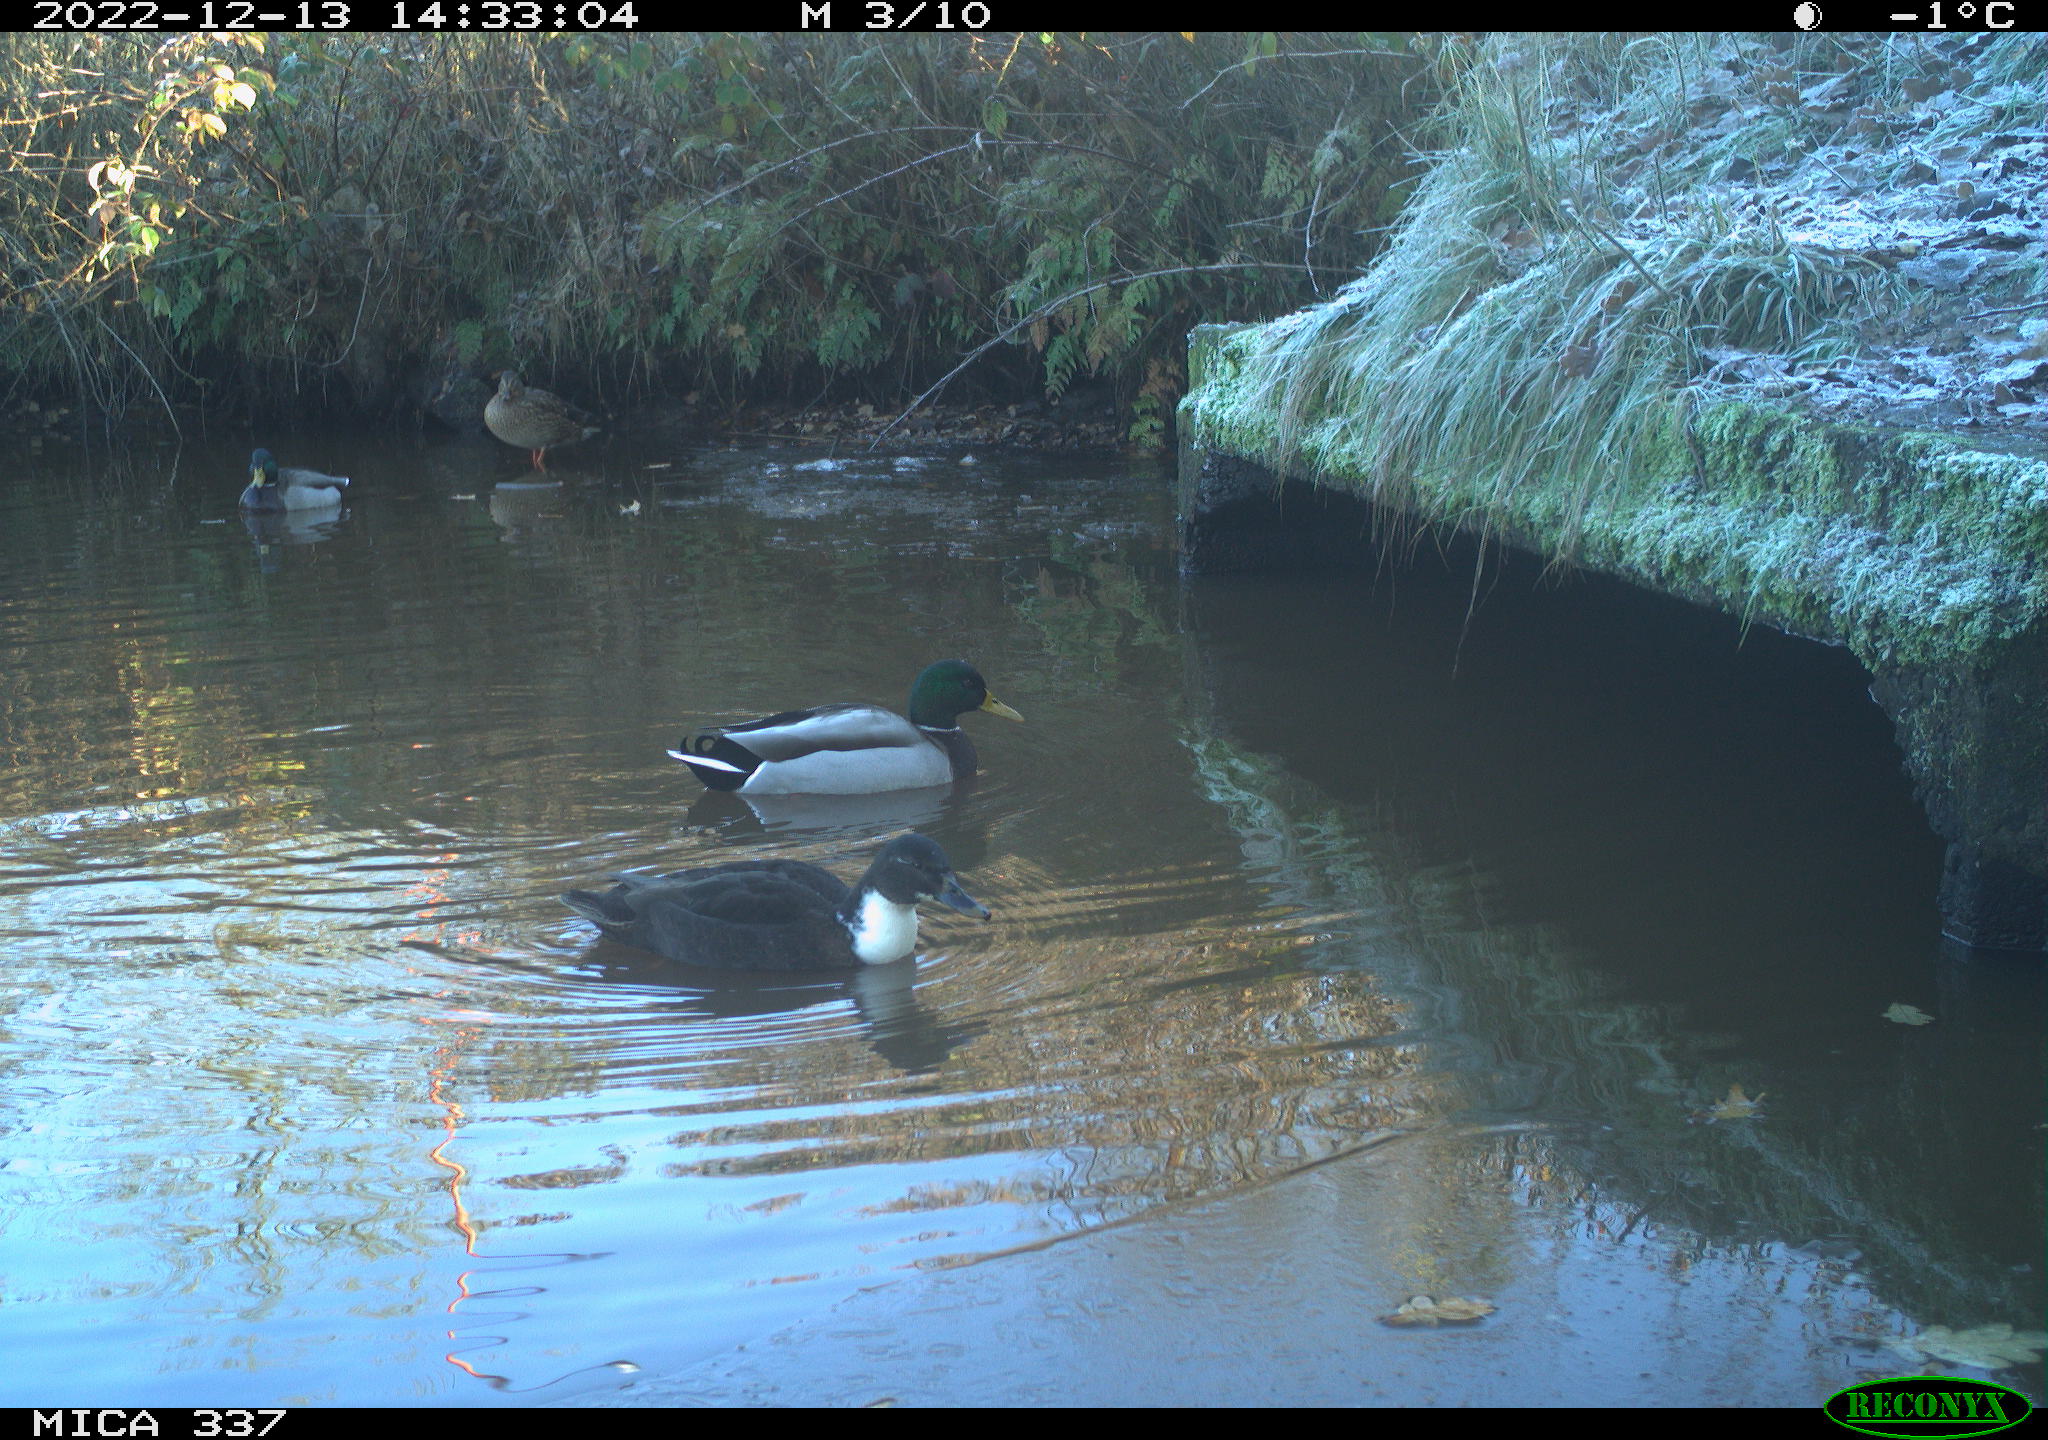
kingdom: Animalia
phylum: Chordata
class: Aves
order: Anseriformes
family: Anatidae
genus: Anas
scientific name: Anas
